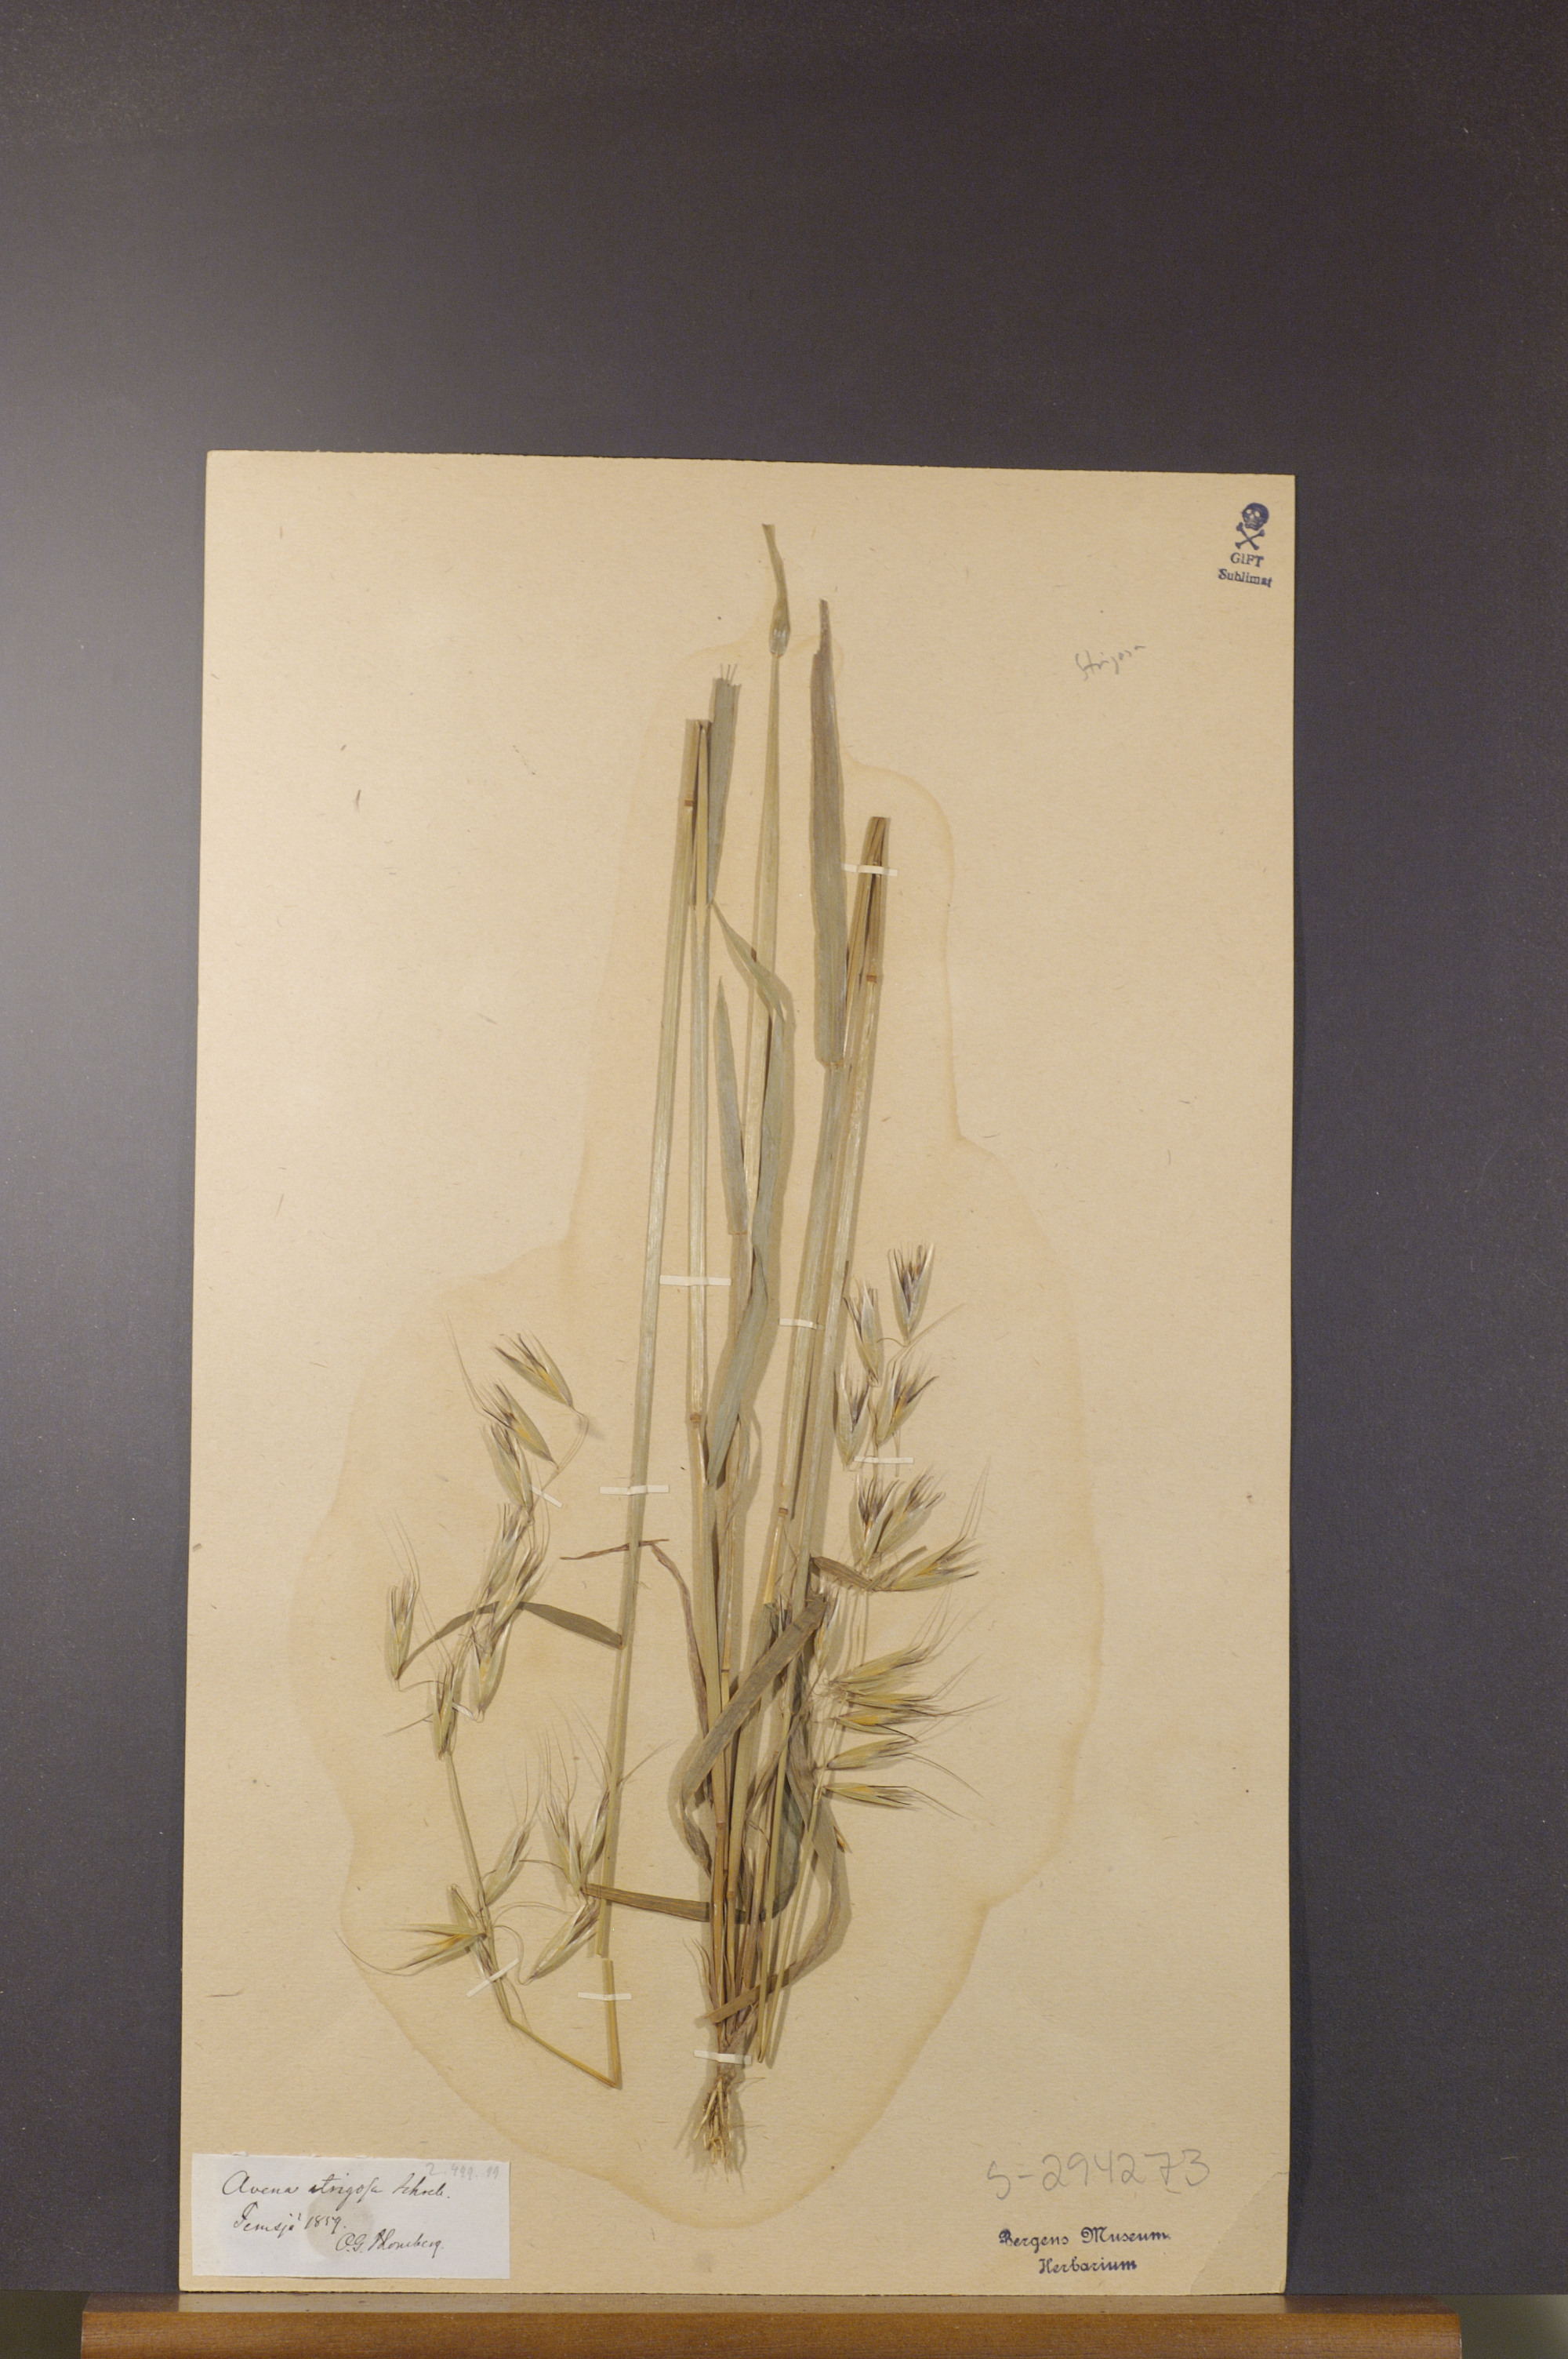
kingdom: Plantae
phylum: Tracheophyta
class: Liliopsida
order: Poales
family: Poaceae
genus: Avena
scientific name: Avena strigosa
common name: Bristle oat
